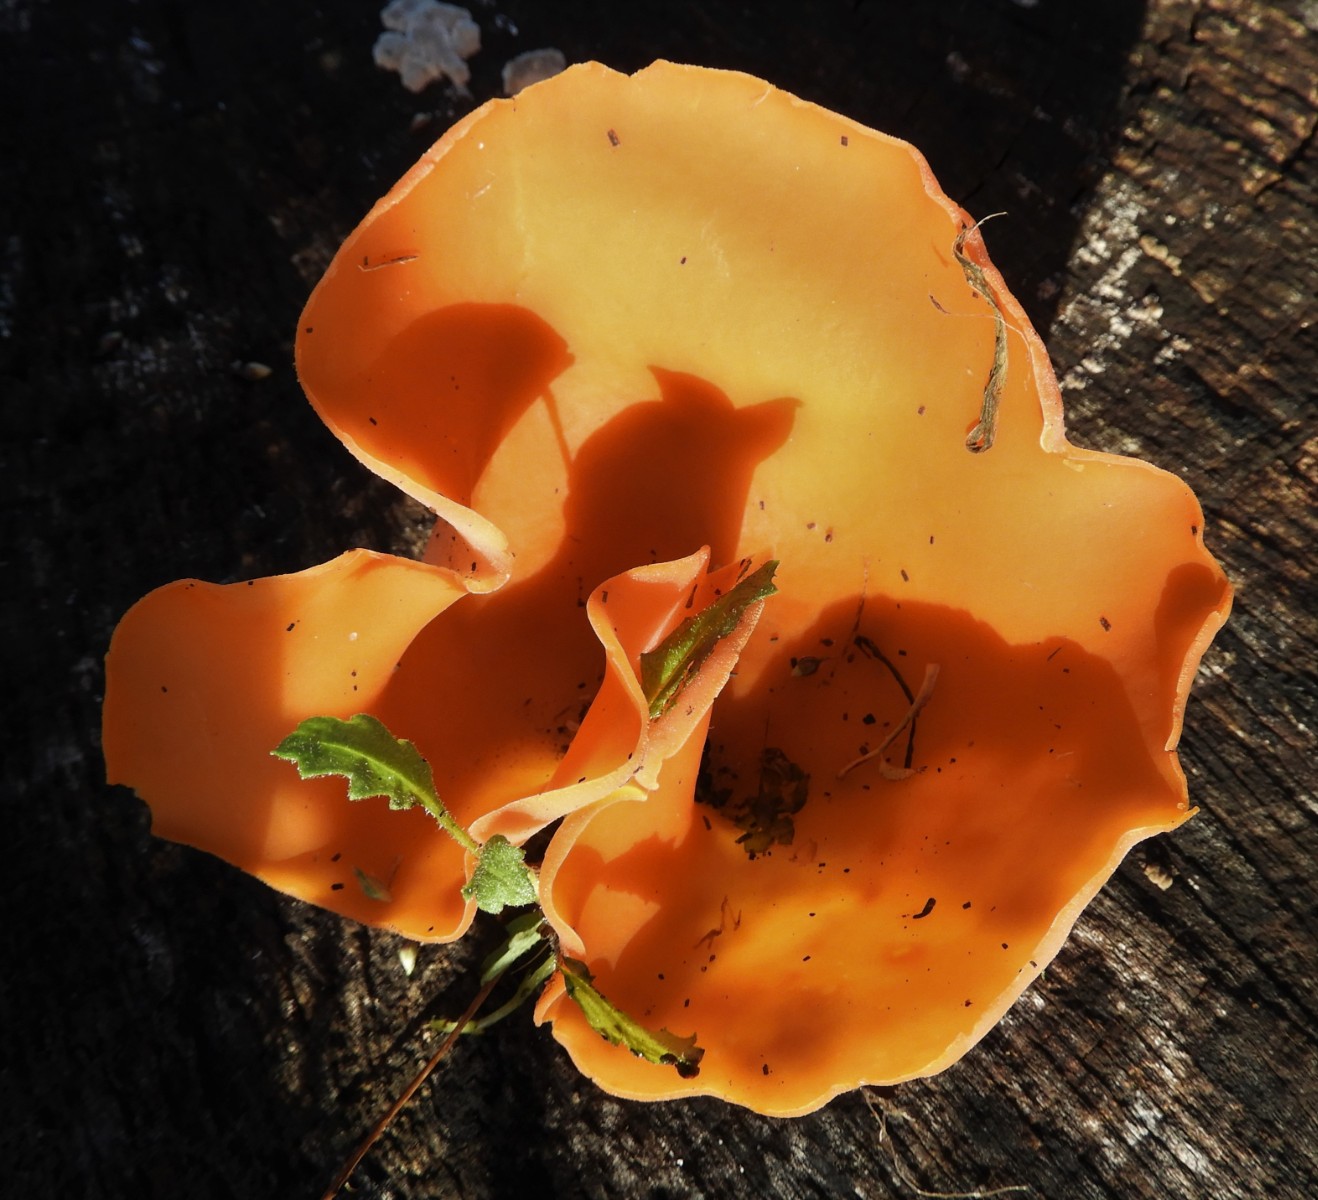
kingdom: Fungi
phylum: Ascomycota
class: Pezizomycetes
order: Pezizales
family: Pyronemataceae
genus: Aleuria
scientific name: Aleuria aurantia
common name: almindelig orangebæger
